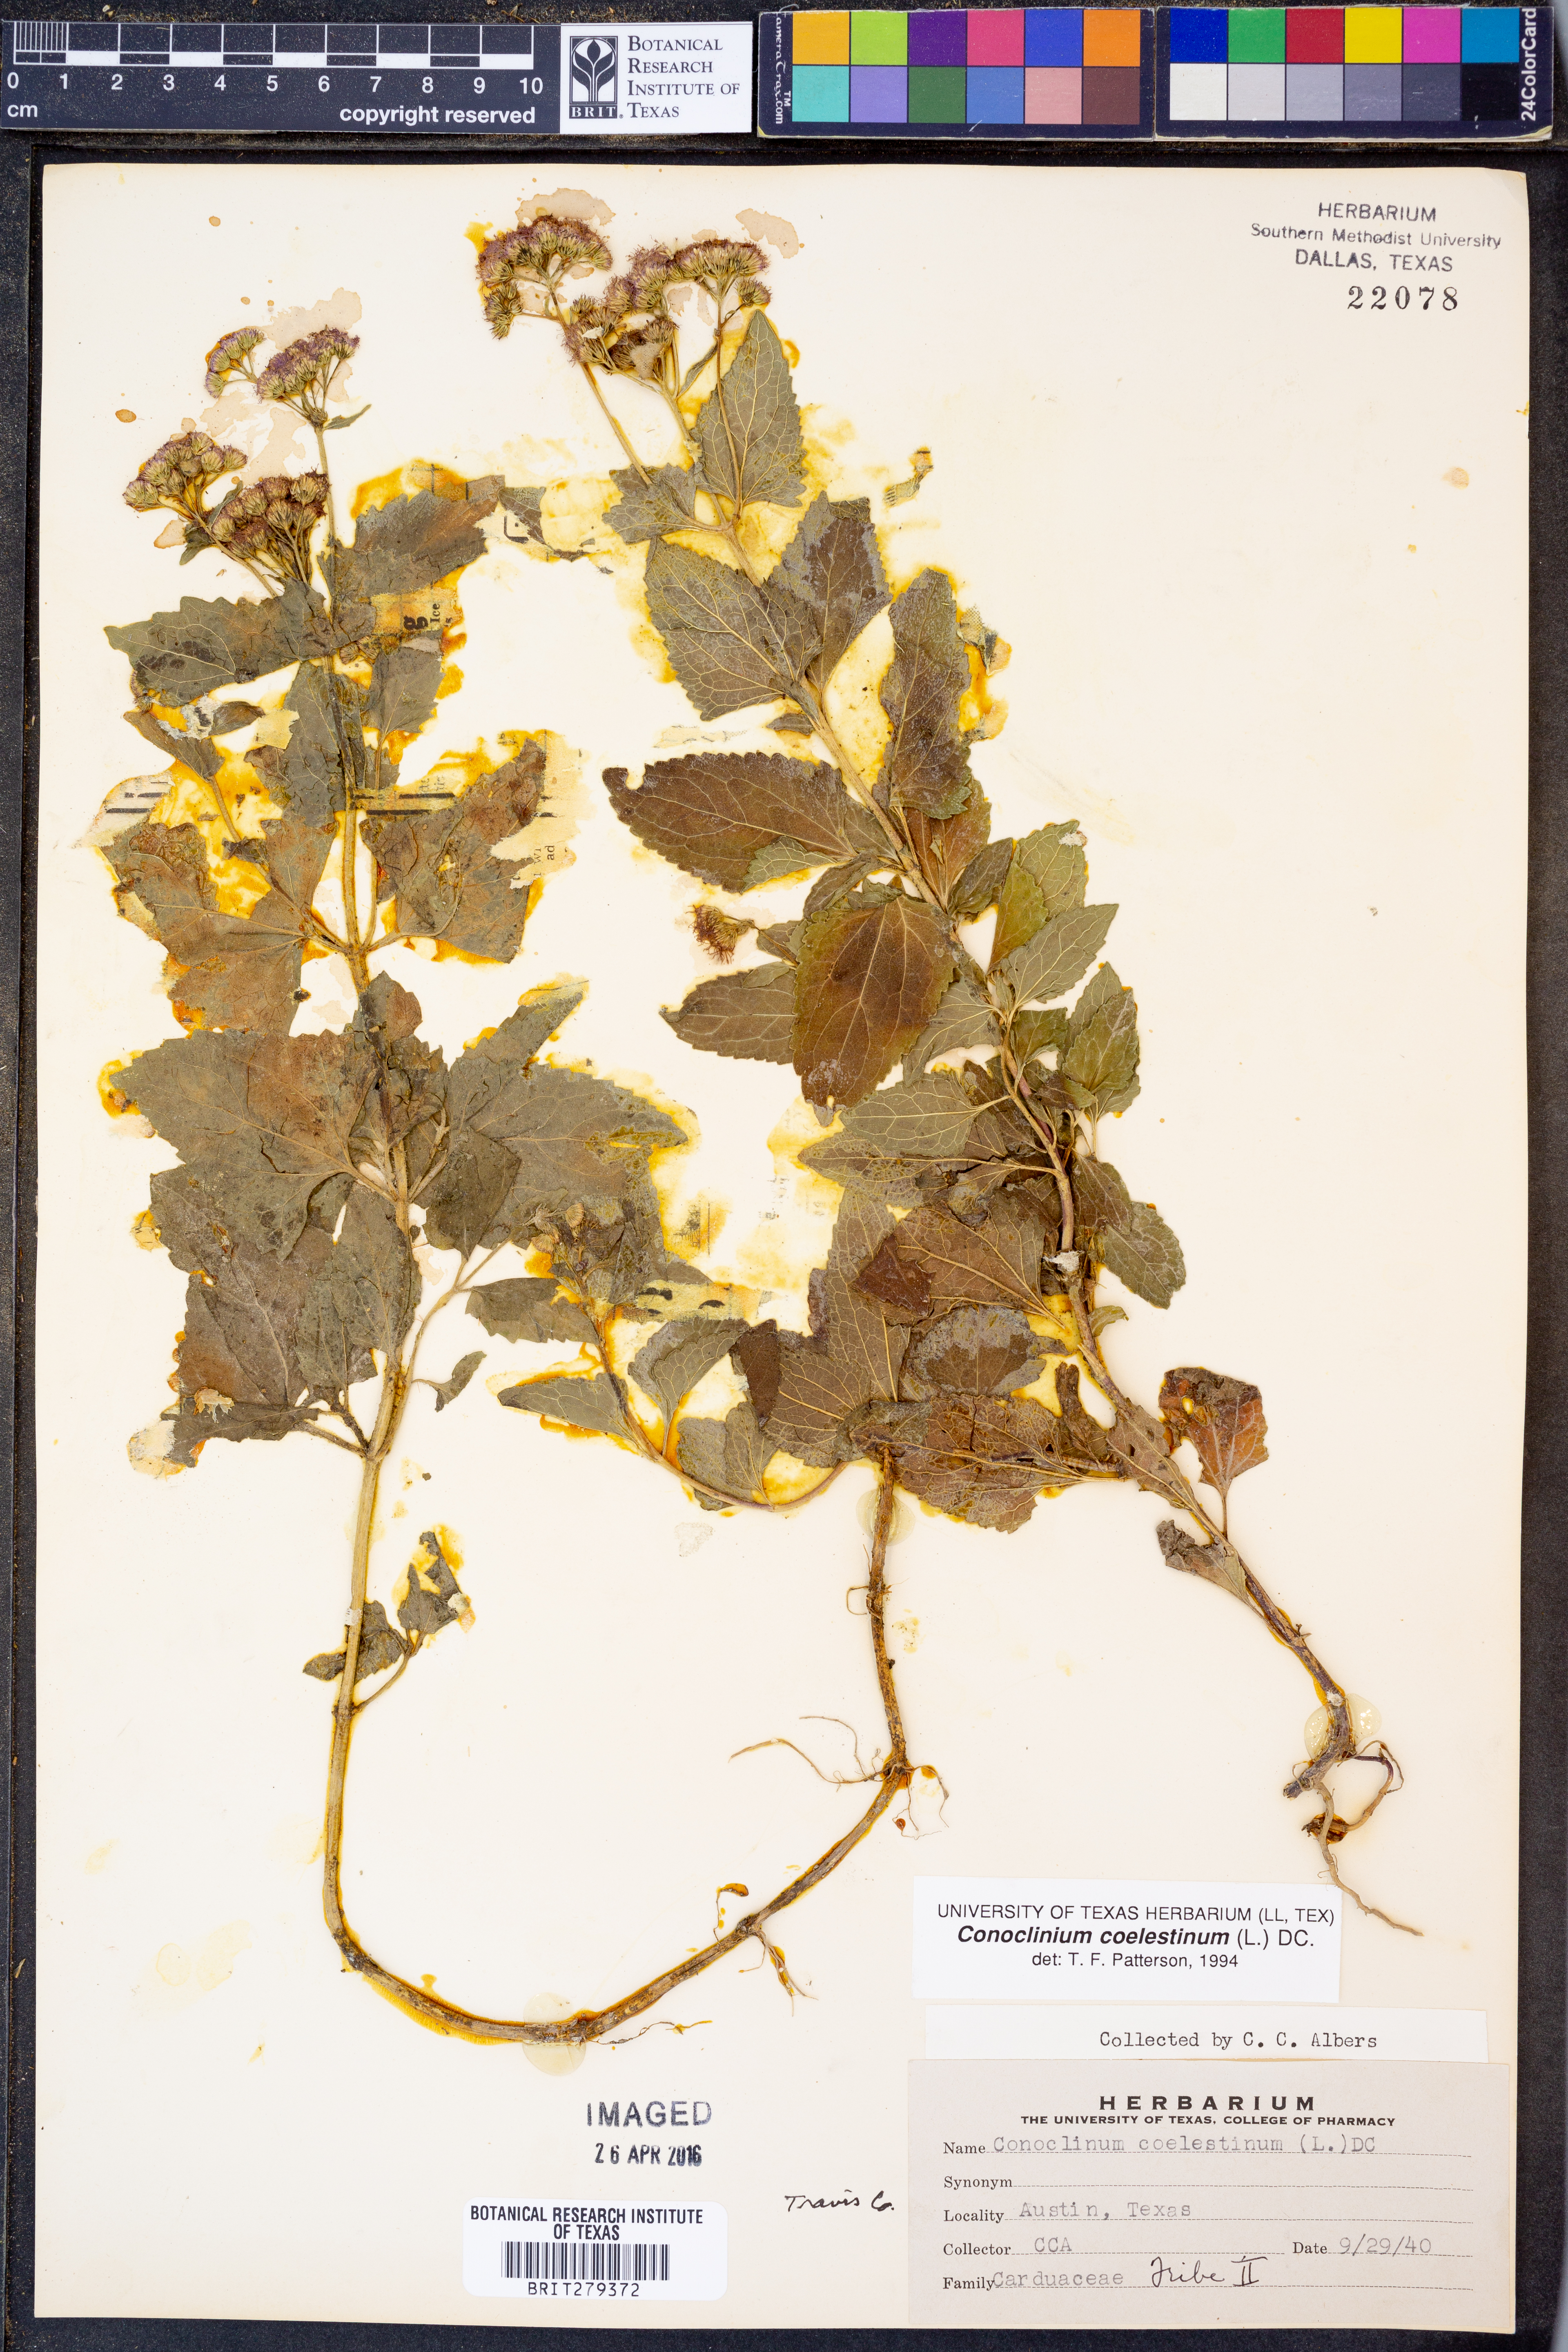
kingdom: Plantae
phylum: Tracheophyta
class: Magnoliopsida
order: Asterales
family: Asteraceae
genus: Conoclinium
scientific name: Conoclinium coelestinum
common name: Blue mistflower
